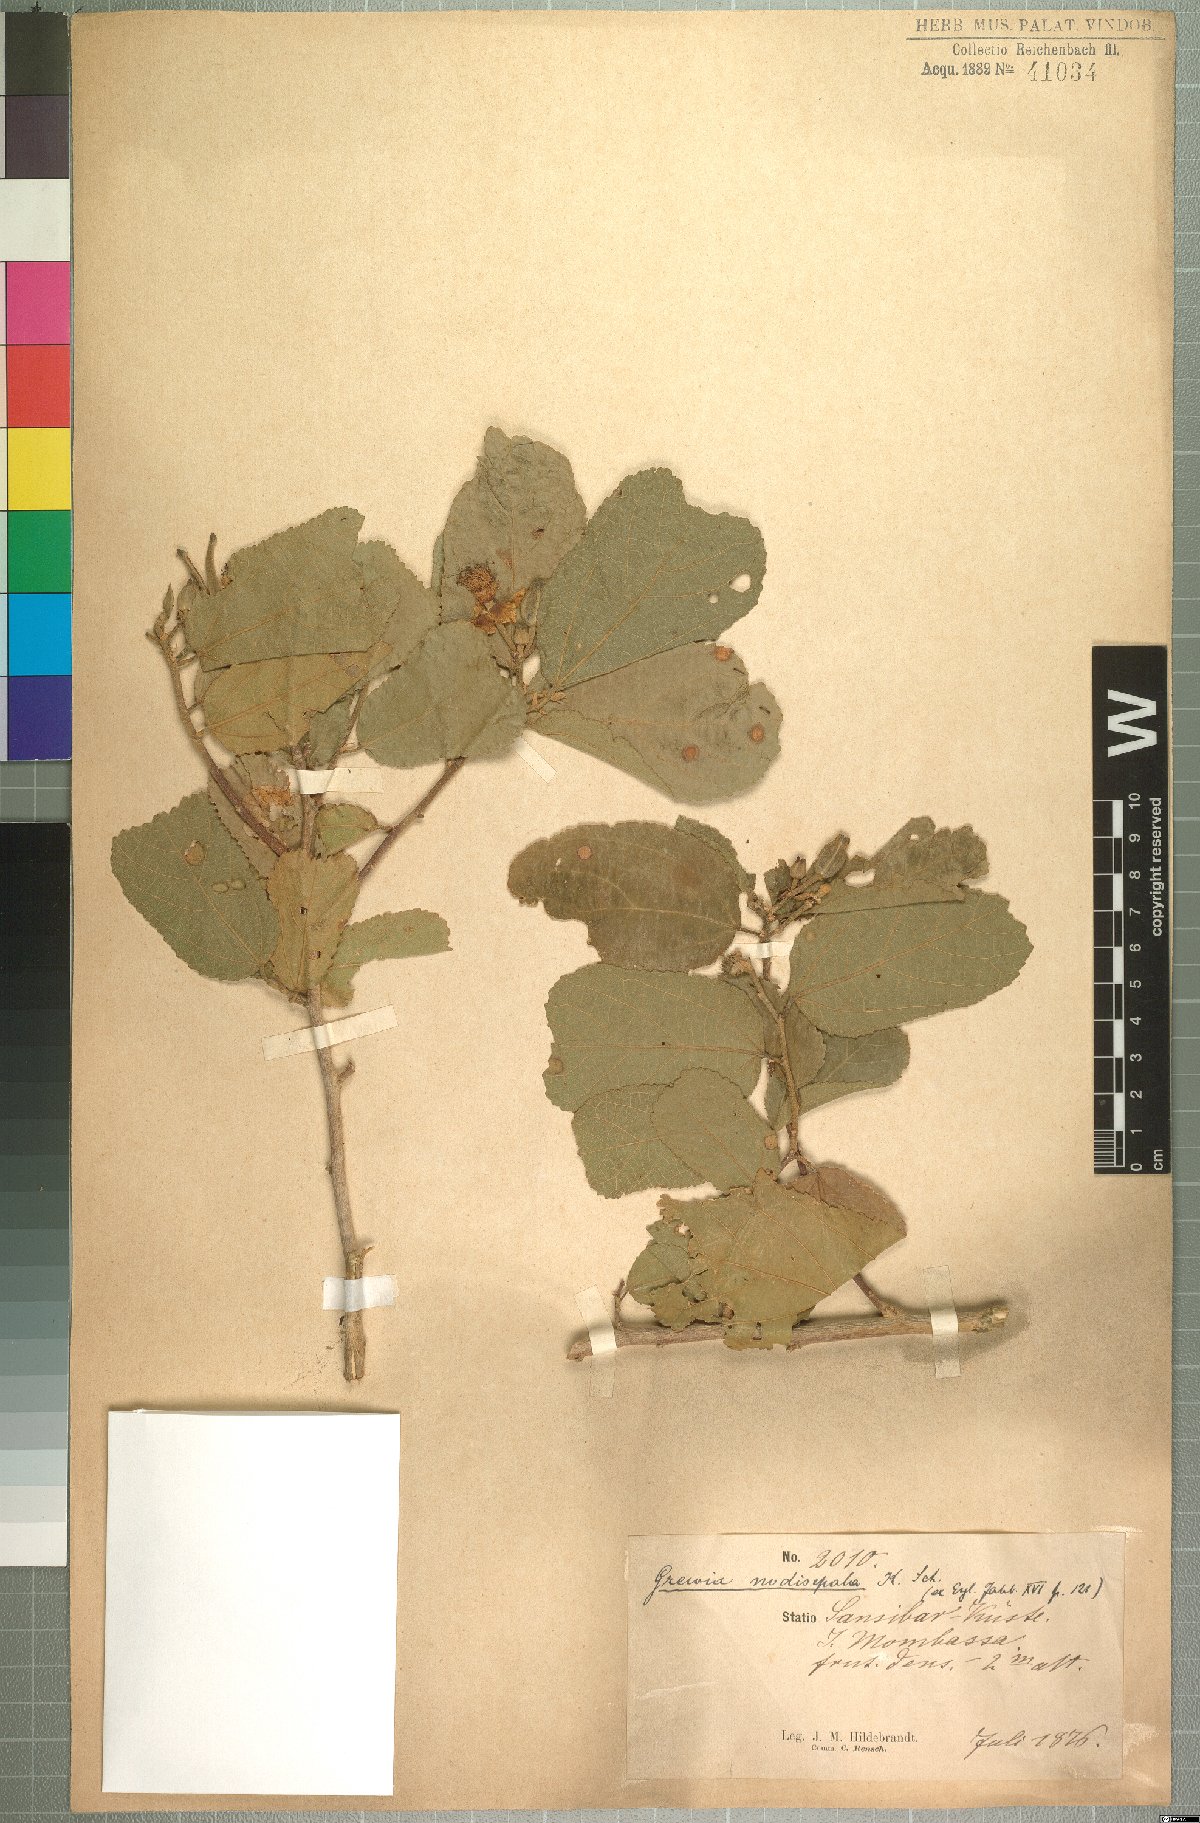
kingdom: Plantae
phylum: Tracheophyta
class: Magnoliopsida
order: Malvales
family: Malvaceae
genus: Grewia
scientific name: Grewia truncata
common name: Mdomoko
